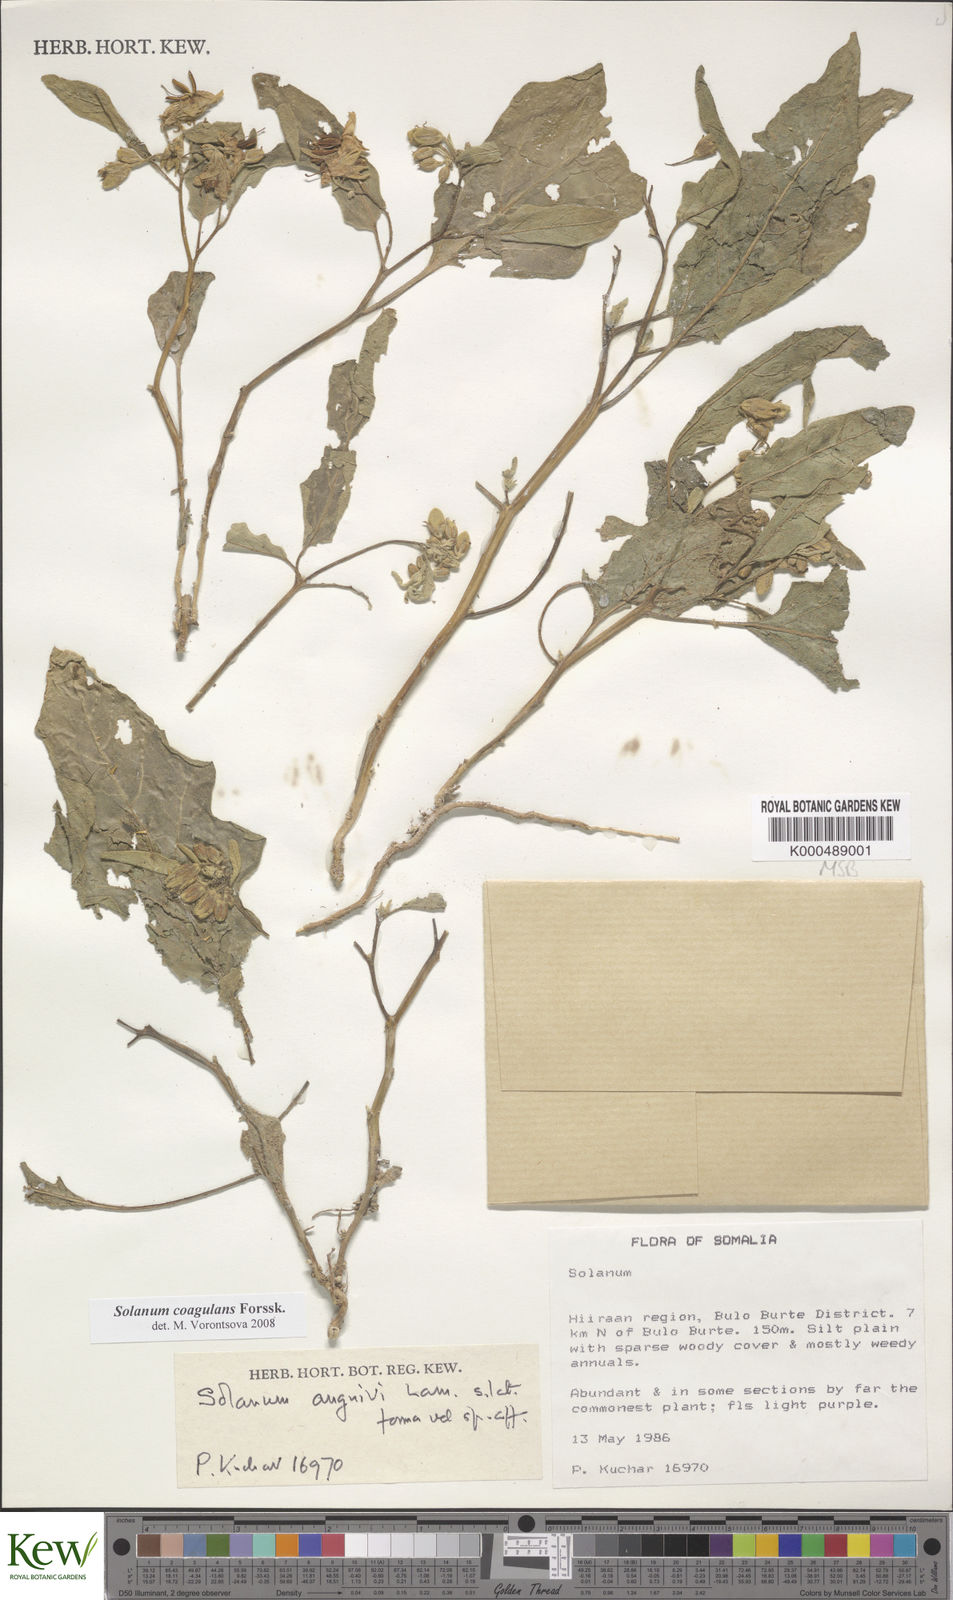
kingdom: Plantae
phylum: Tracheophyta
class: Magnoliopsida
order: Solanales
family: Solanaceae
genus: Solanum
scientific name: Solanum coagulans
